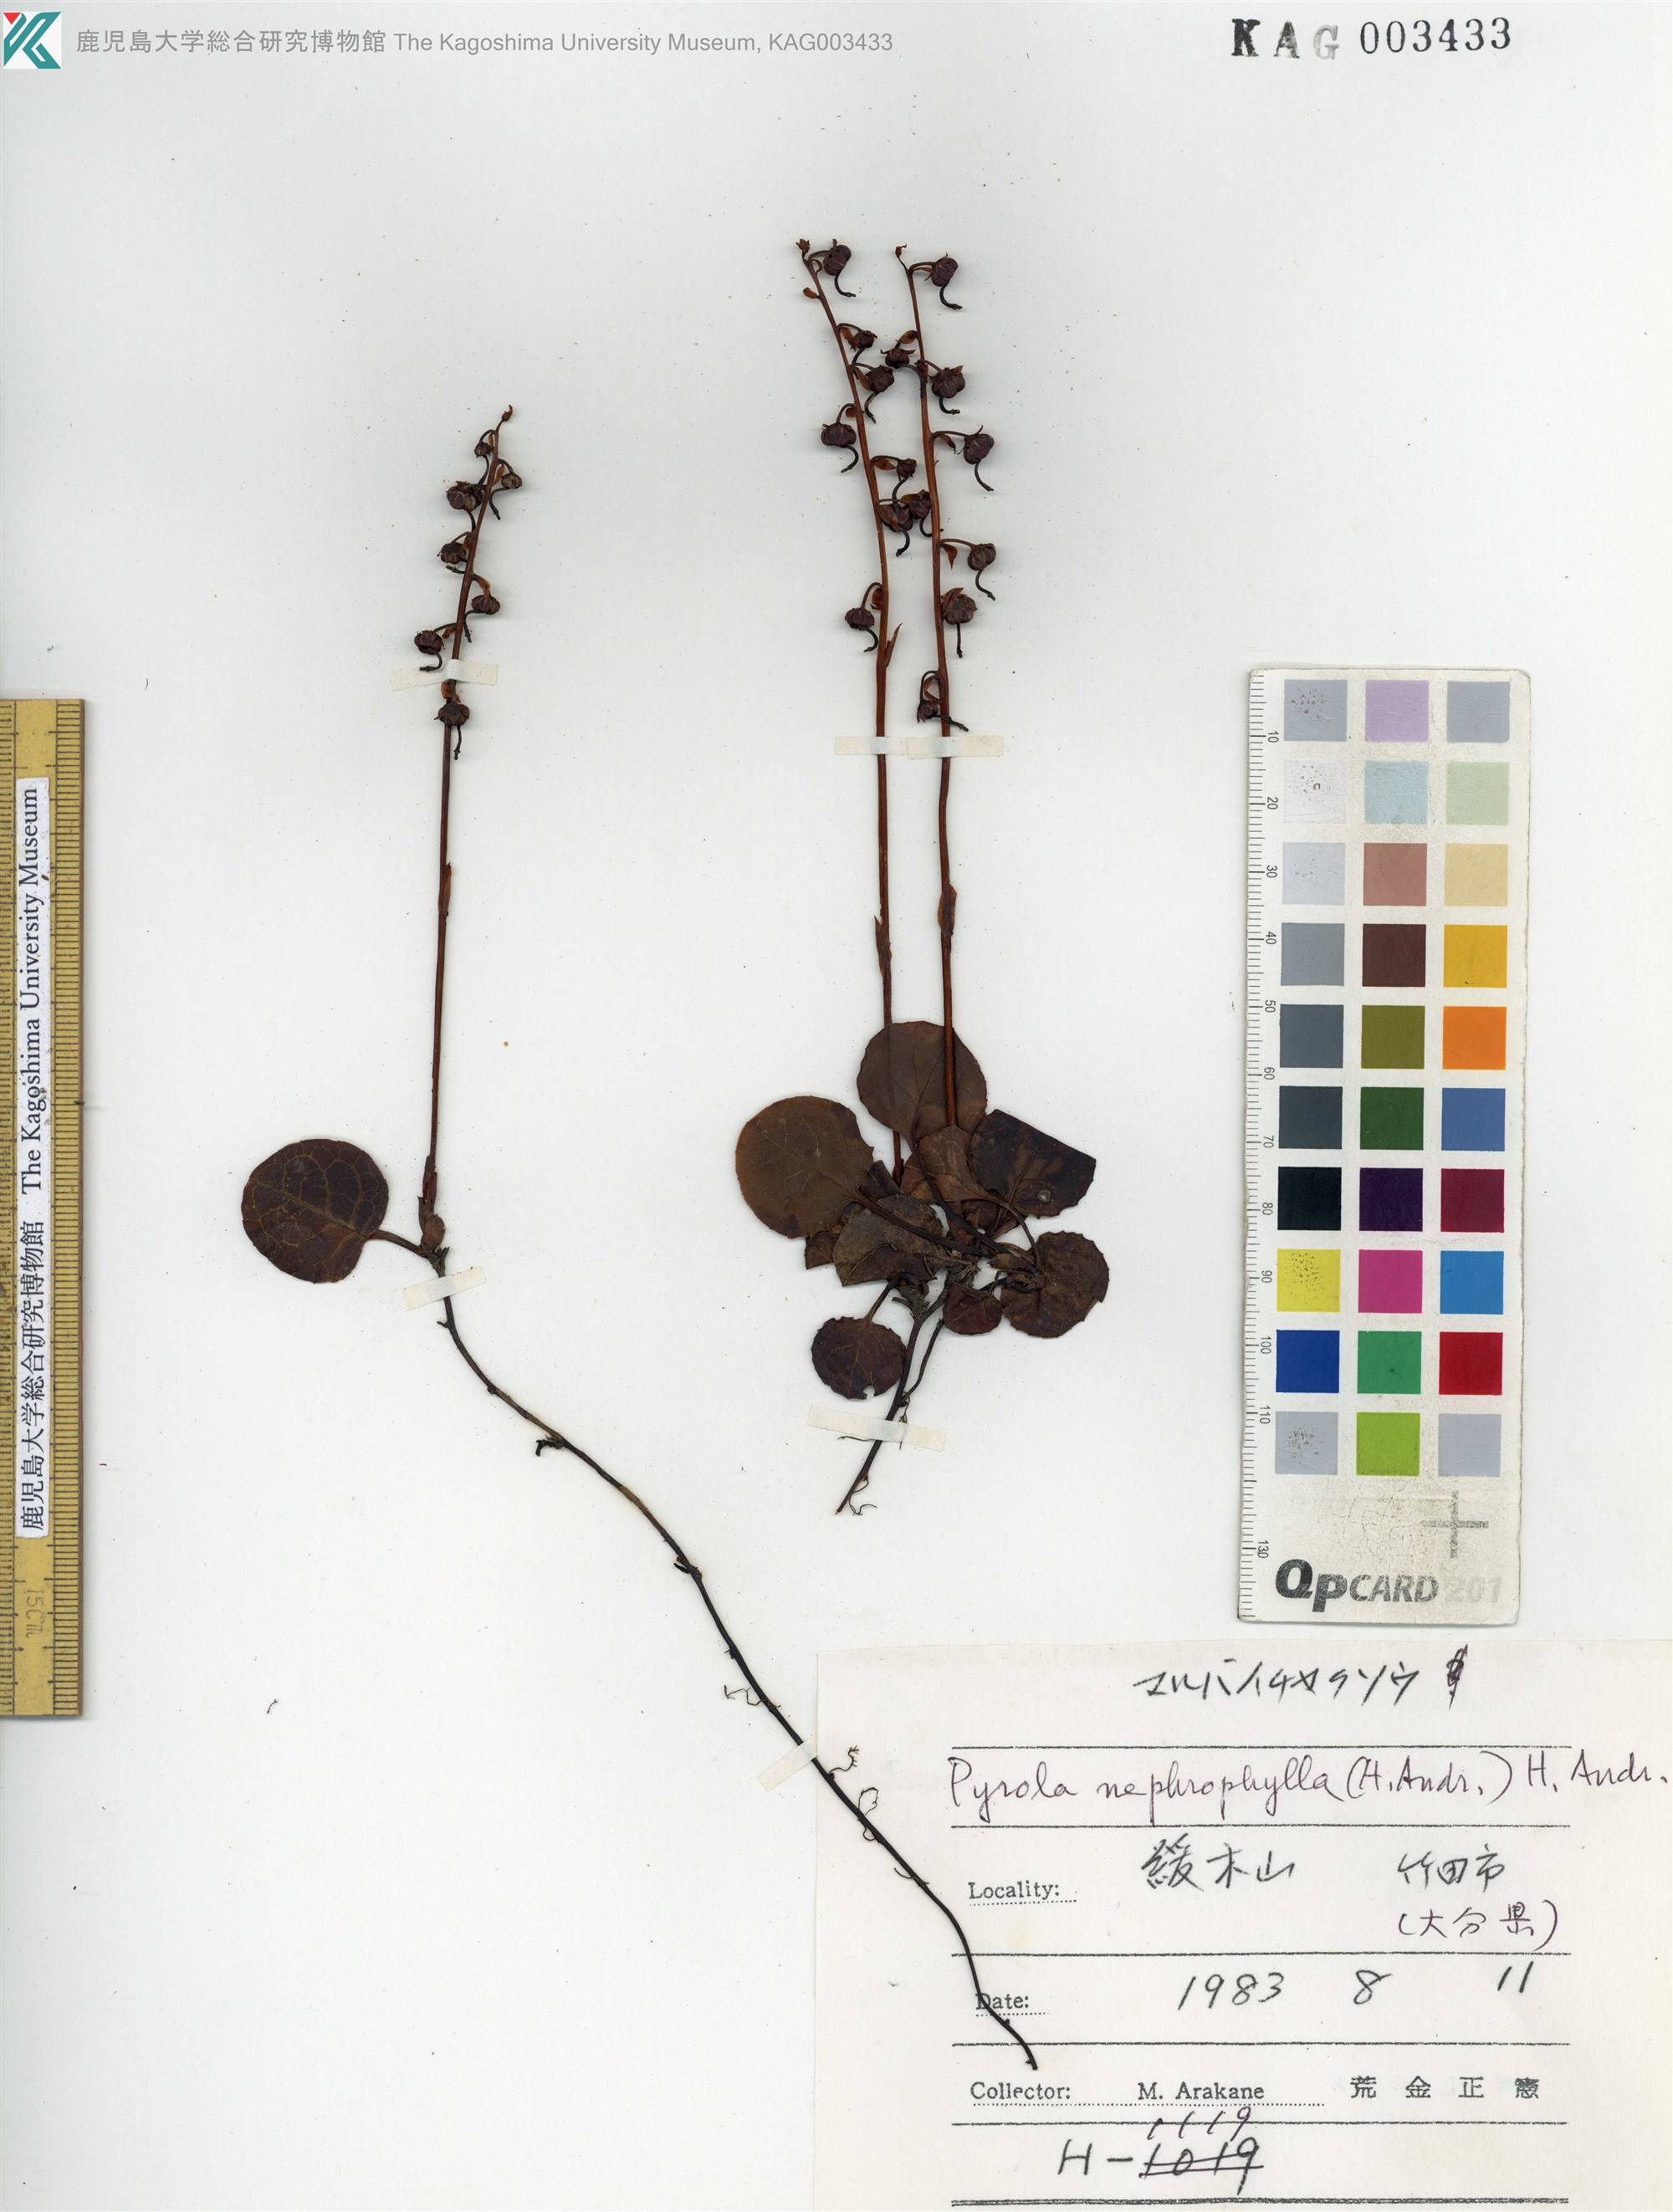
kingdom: Plantae
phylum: Tracheophyta
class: Magnoliopsida
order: Ericales
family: Ericaceae
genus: Pyrola
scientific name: Pyrola nephrophylla
